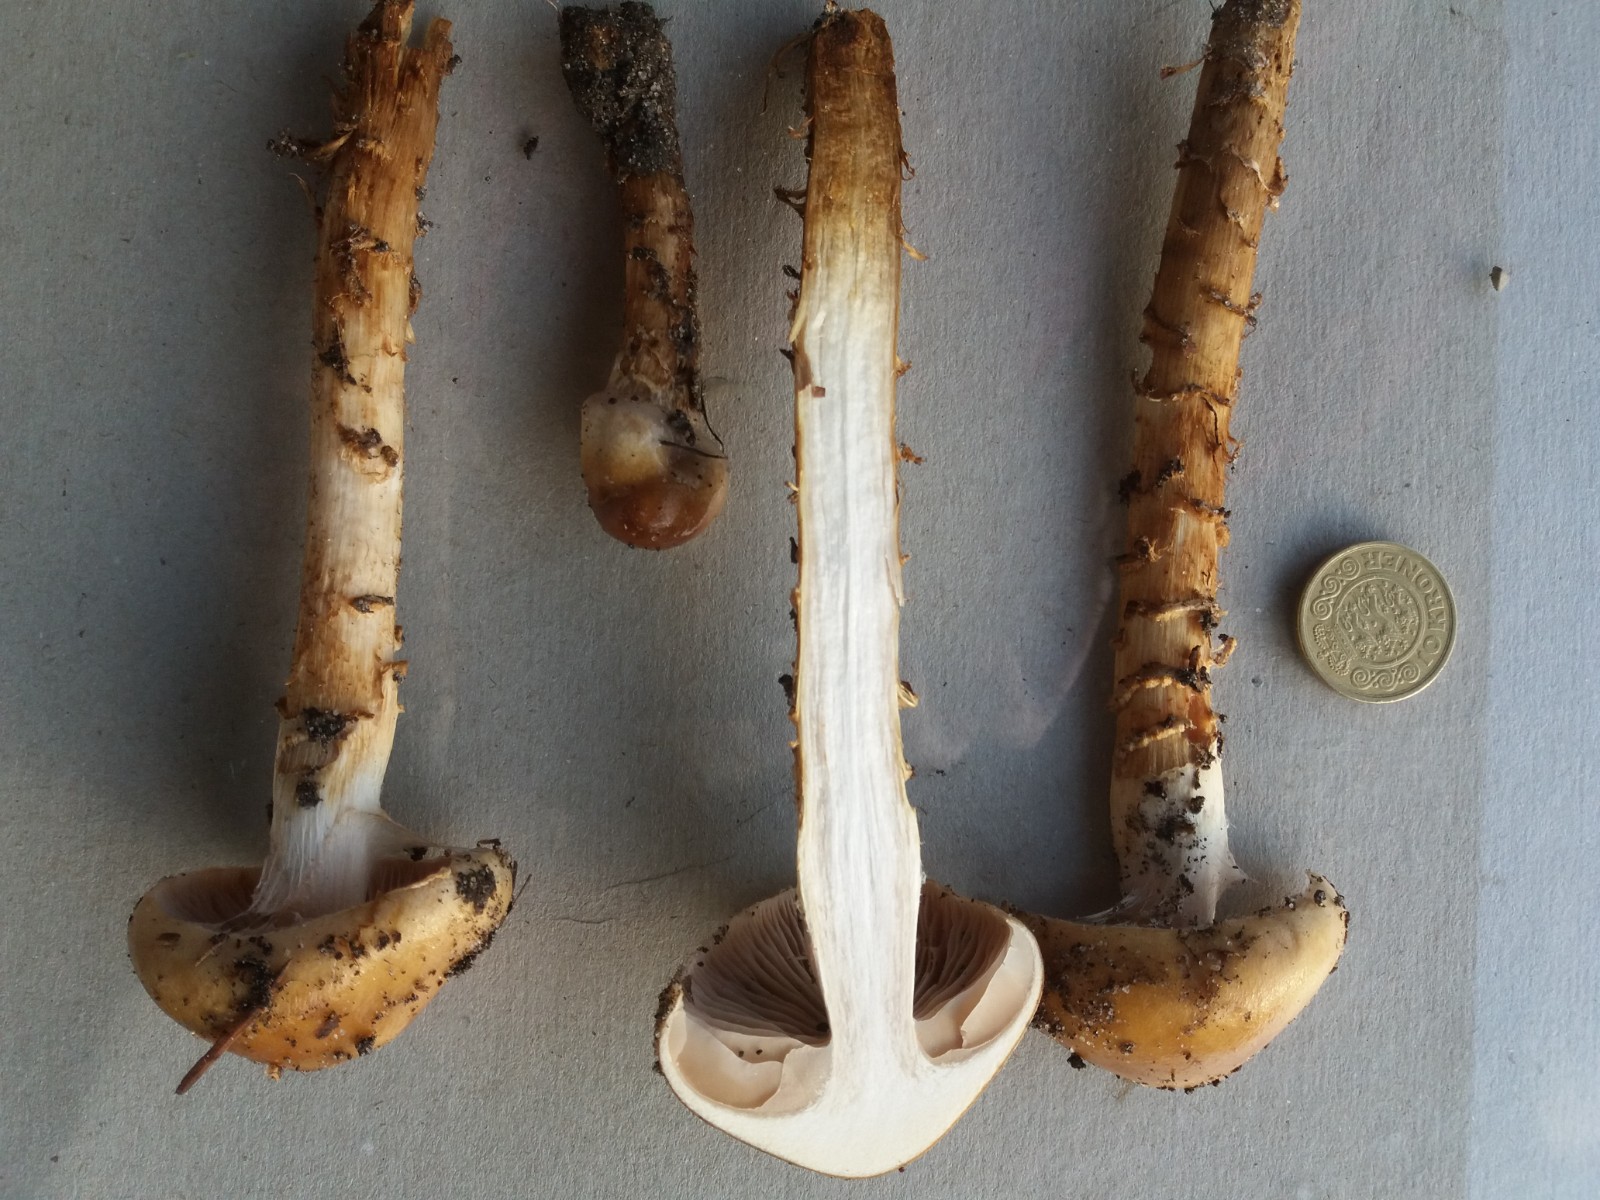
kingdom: Fungi
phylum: Basidiomycota
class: Agaricomycetes
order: Agaricales
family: Cortinariaceae
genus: Cortinarius
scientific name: Cortinarius trivialis
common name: Girdled webcap
